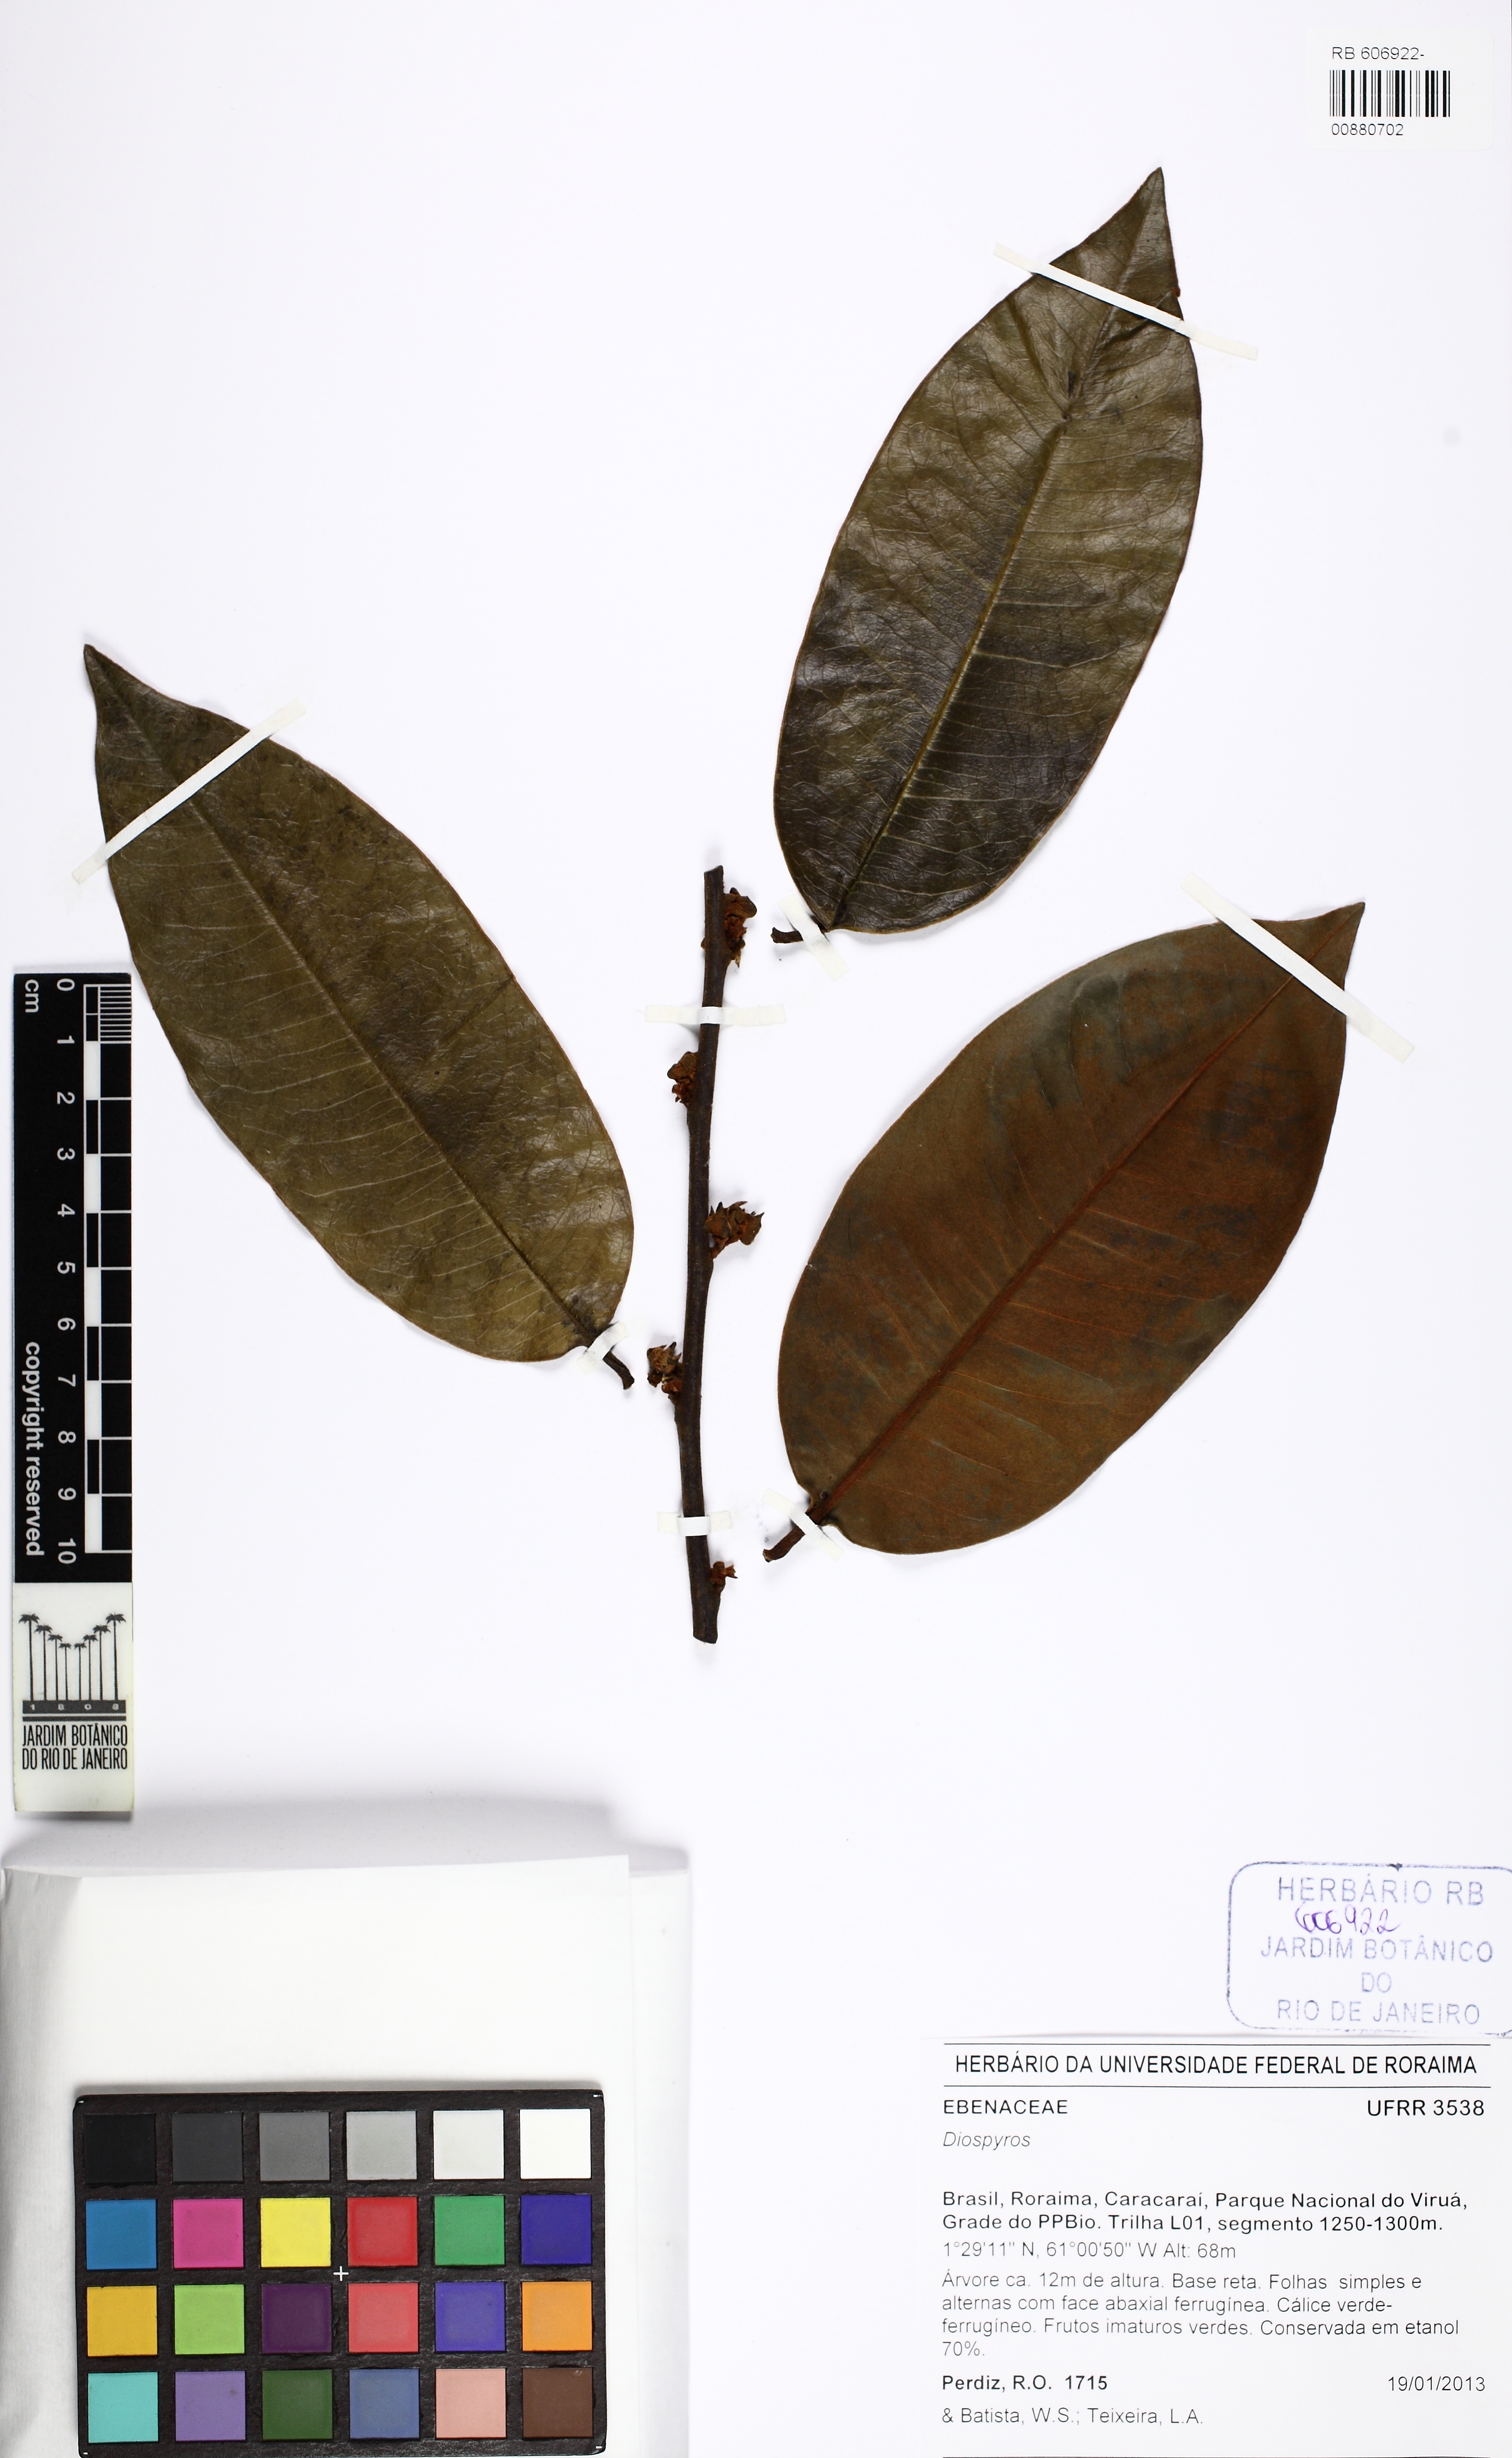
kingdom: Plantae
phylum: Tracheophyta
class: Magnoliopsida
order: Ericales
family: Ebenaceae
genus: Diospyros
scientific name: Diospyros
